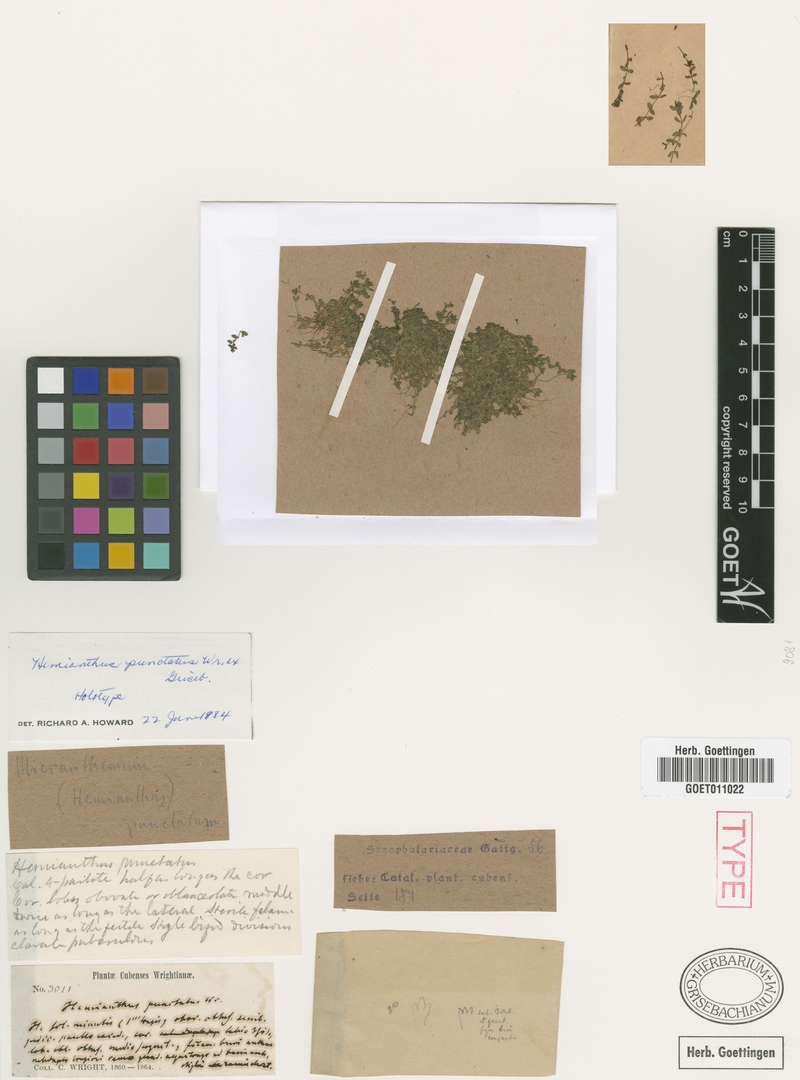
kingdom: Plantae
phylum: Tracheophyta
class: Magnoliopsida
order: Lamiales
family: Linderniaceae
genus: Micranthemum
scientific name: Micranthemum callitrichoides
